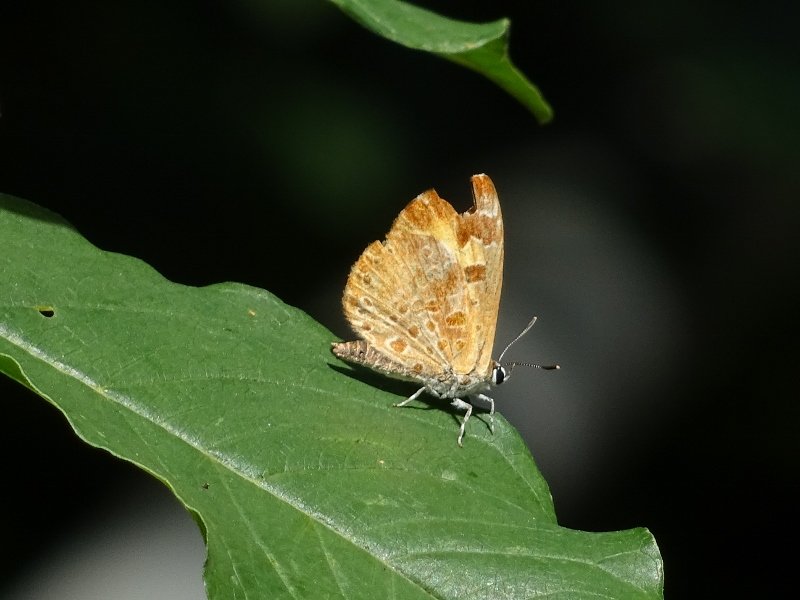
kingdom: Animalia
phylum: Arthropoda
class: Insecta
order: Lepidoptera
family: Lycaenidae
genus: Feniseca
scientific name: Feniseca tarquinius
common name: Harvester
